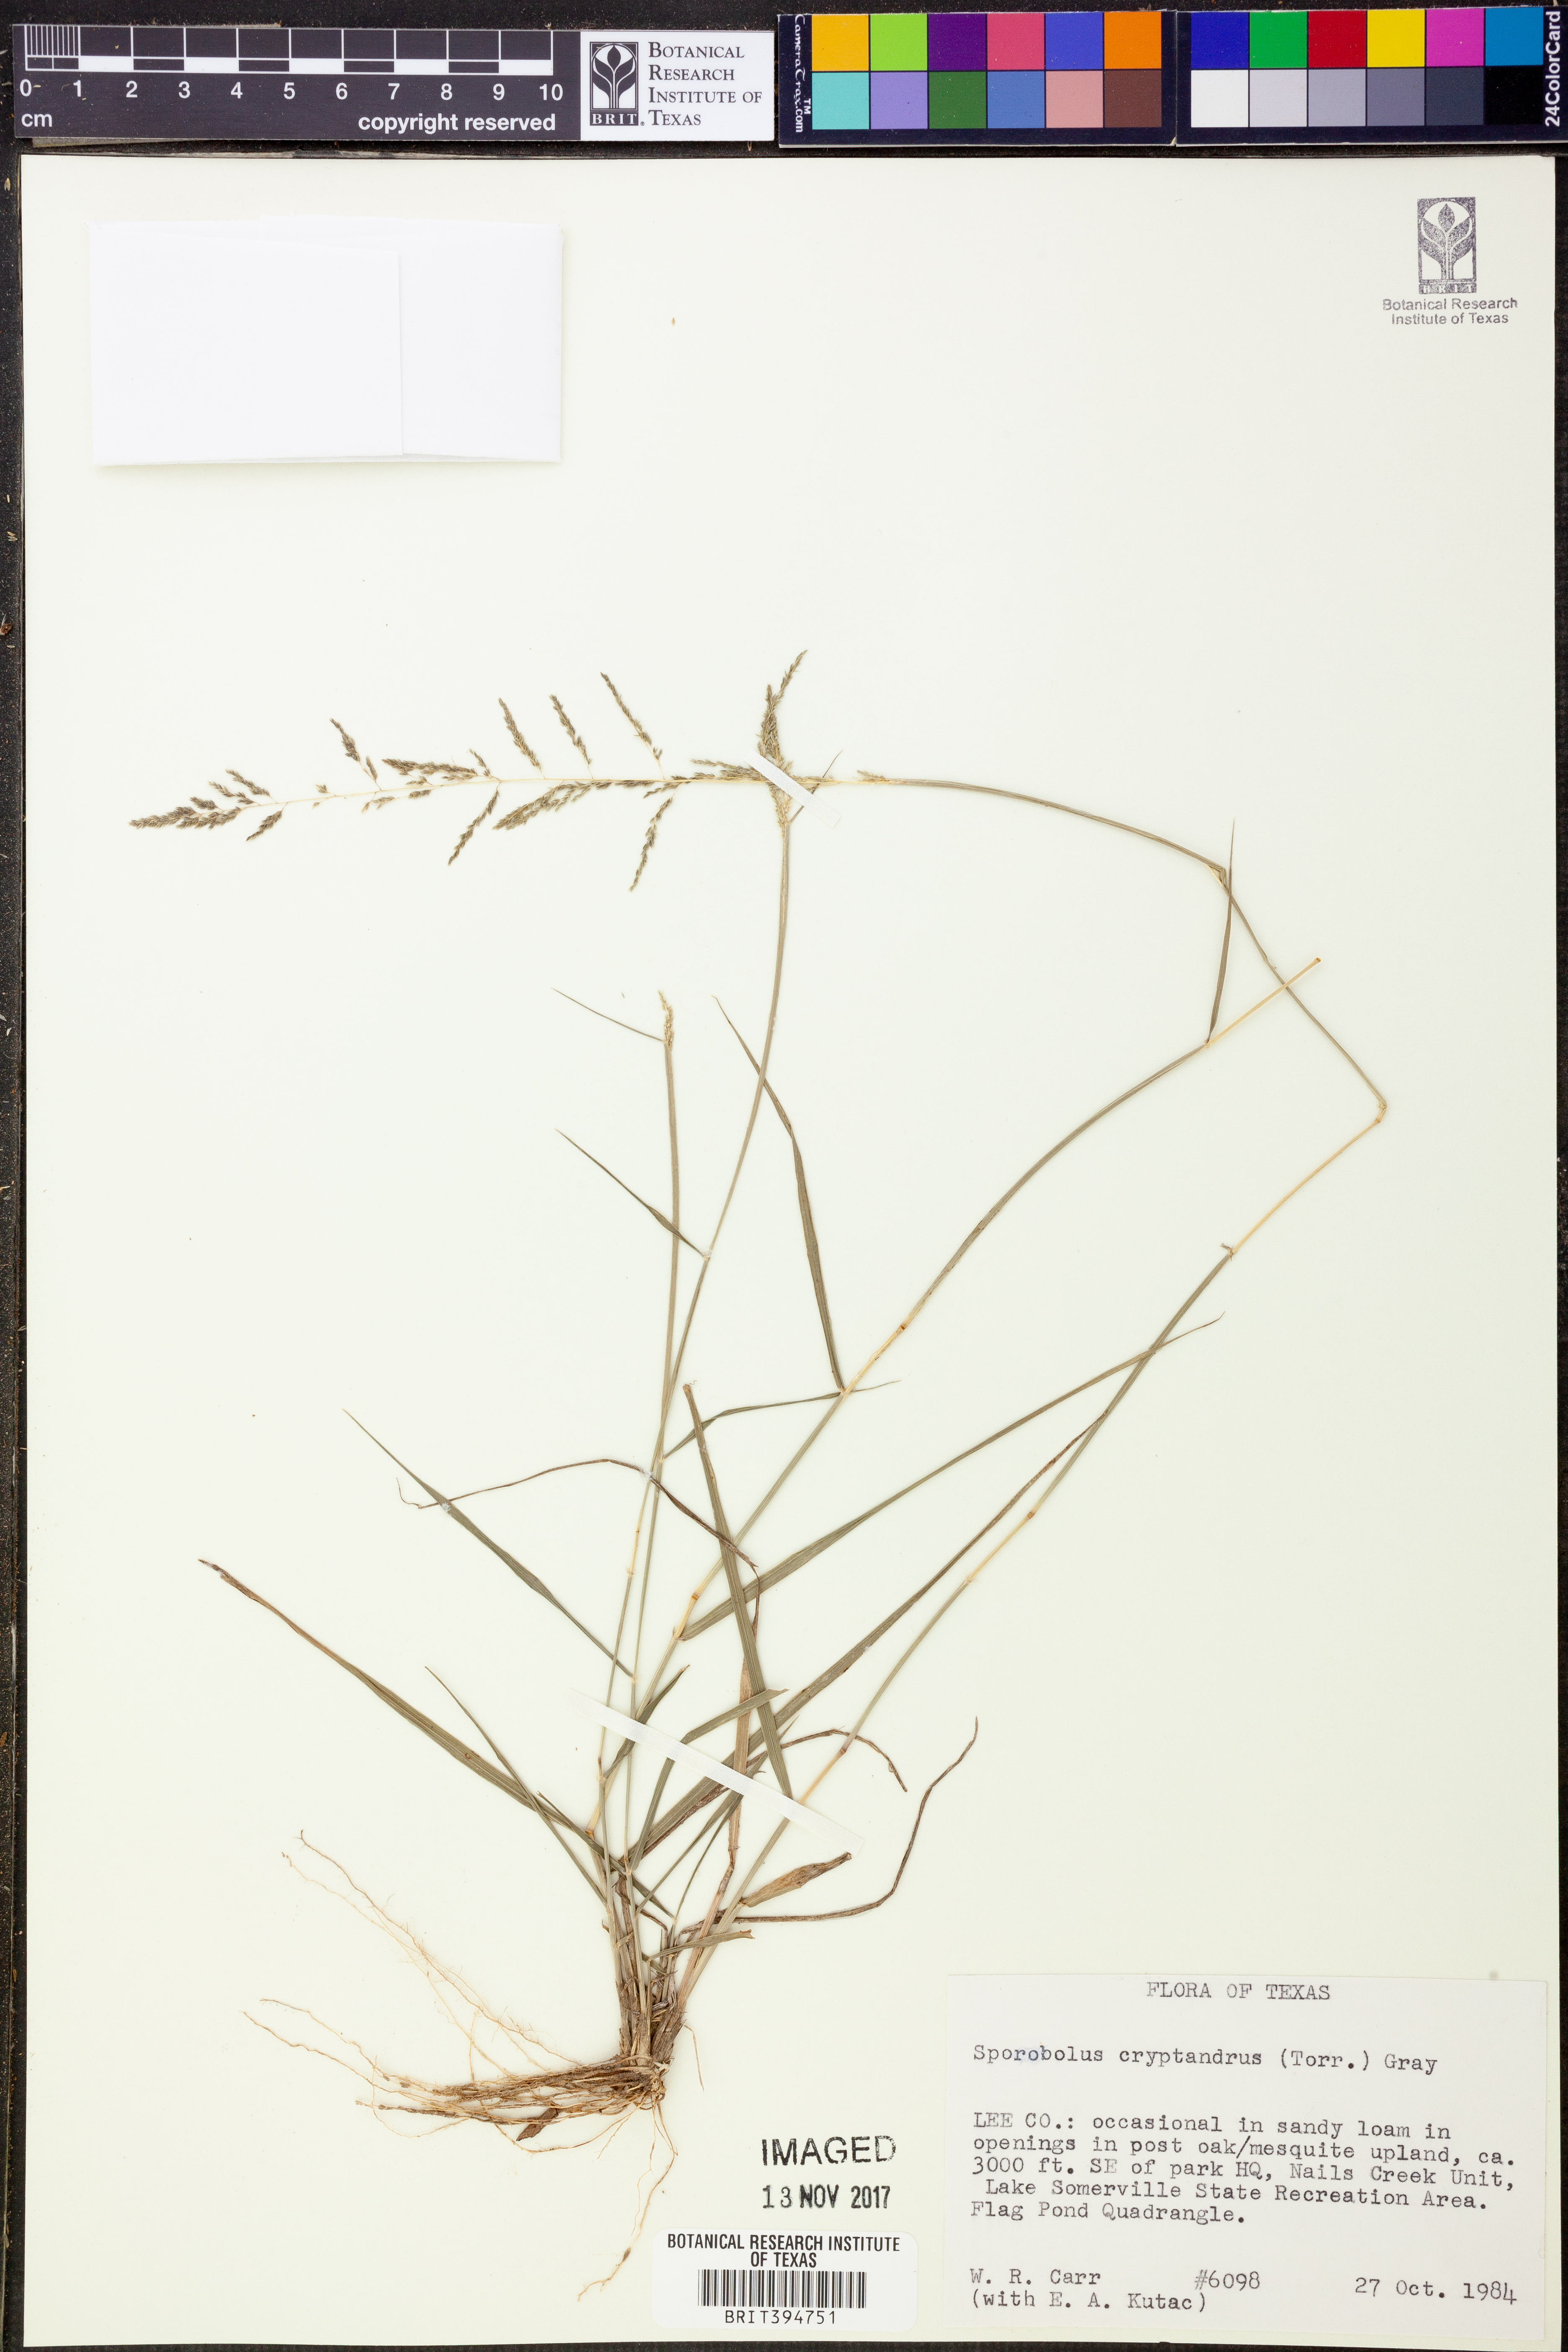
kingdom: Plantae
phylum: Tracheophyta
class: Liliopsida
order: Poales
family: Poaceae
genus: Sporobolus
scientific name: Sporobolus cryptandrus
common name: Sand dropseed
